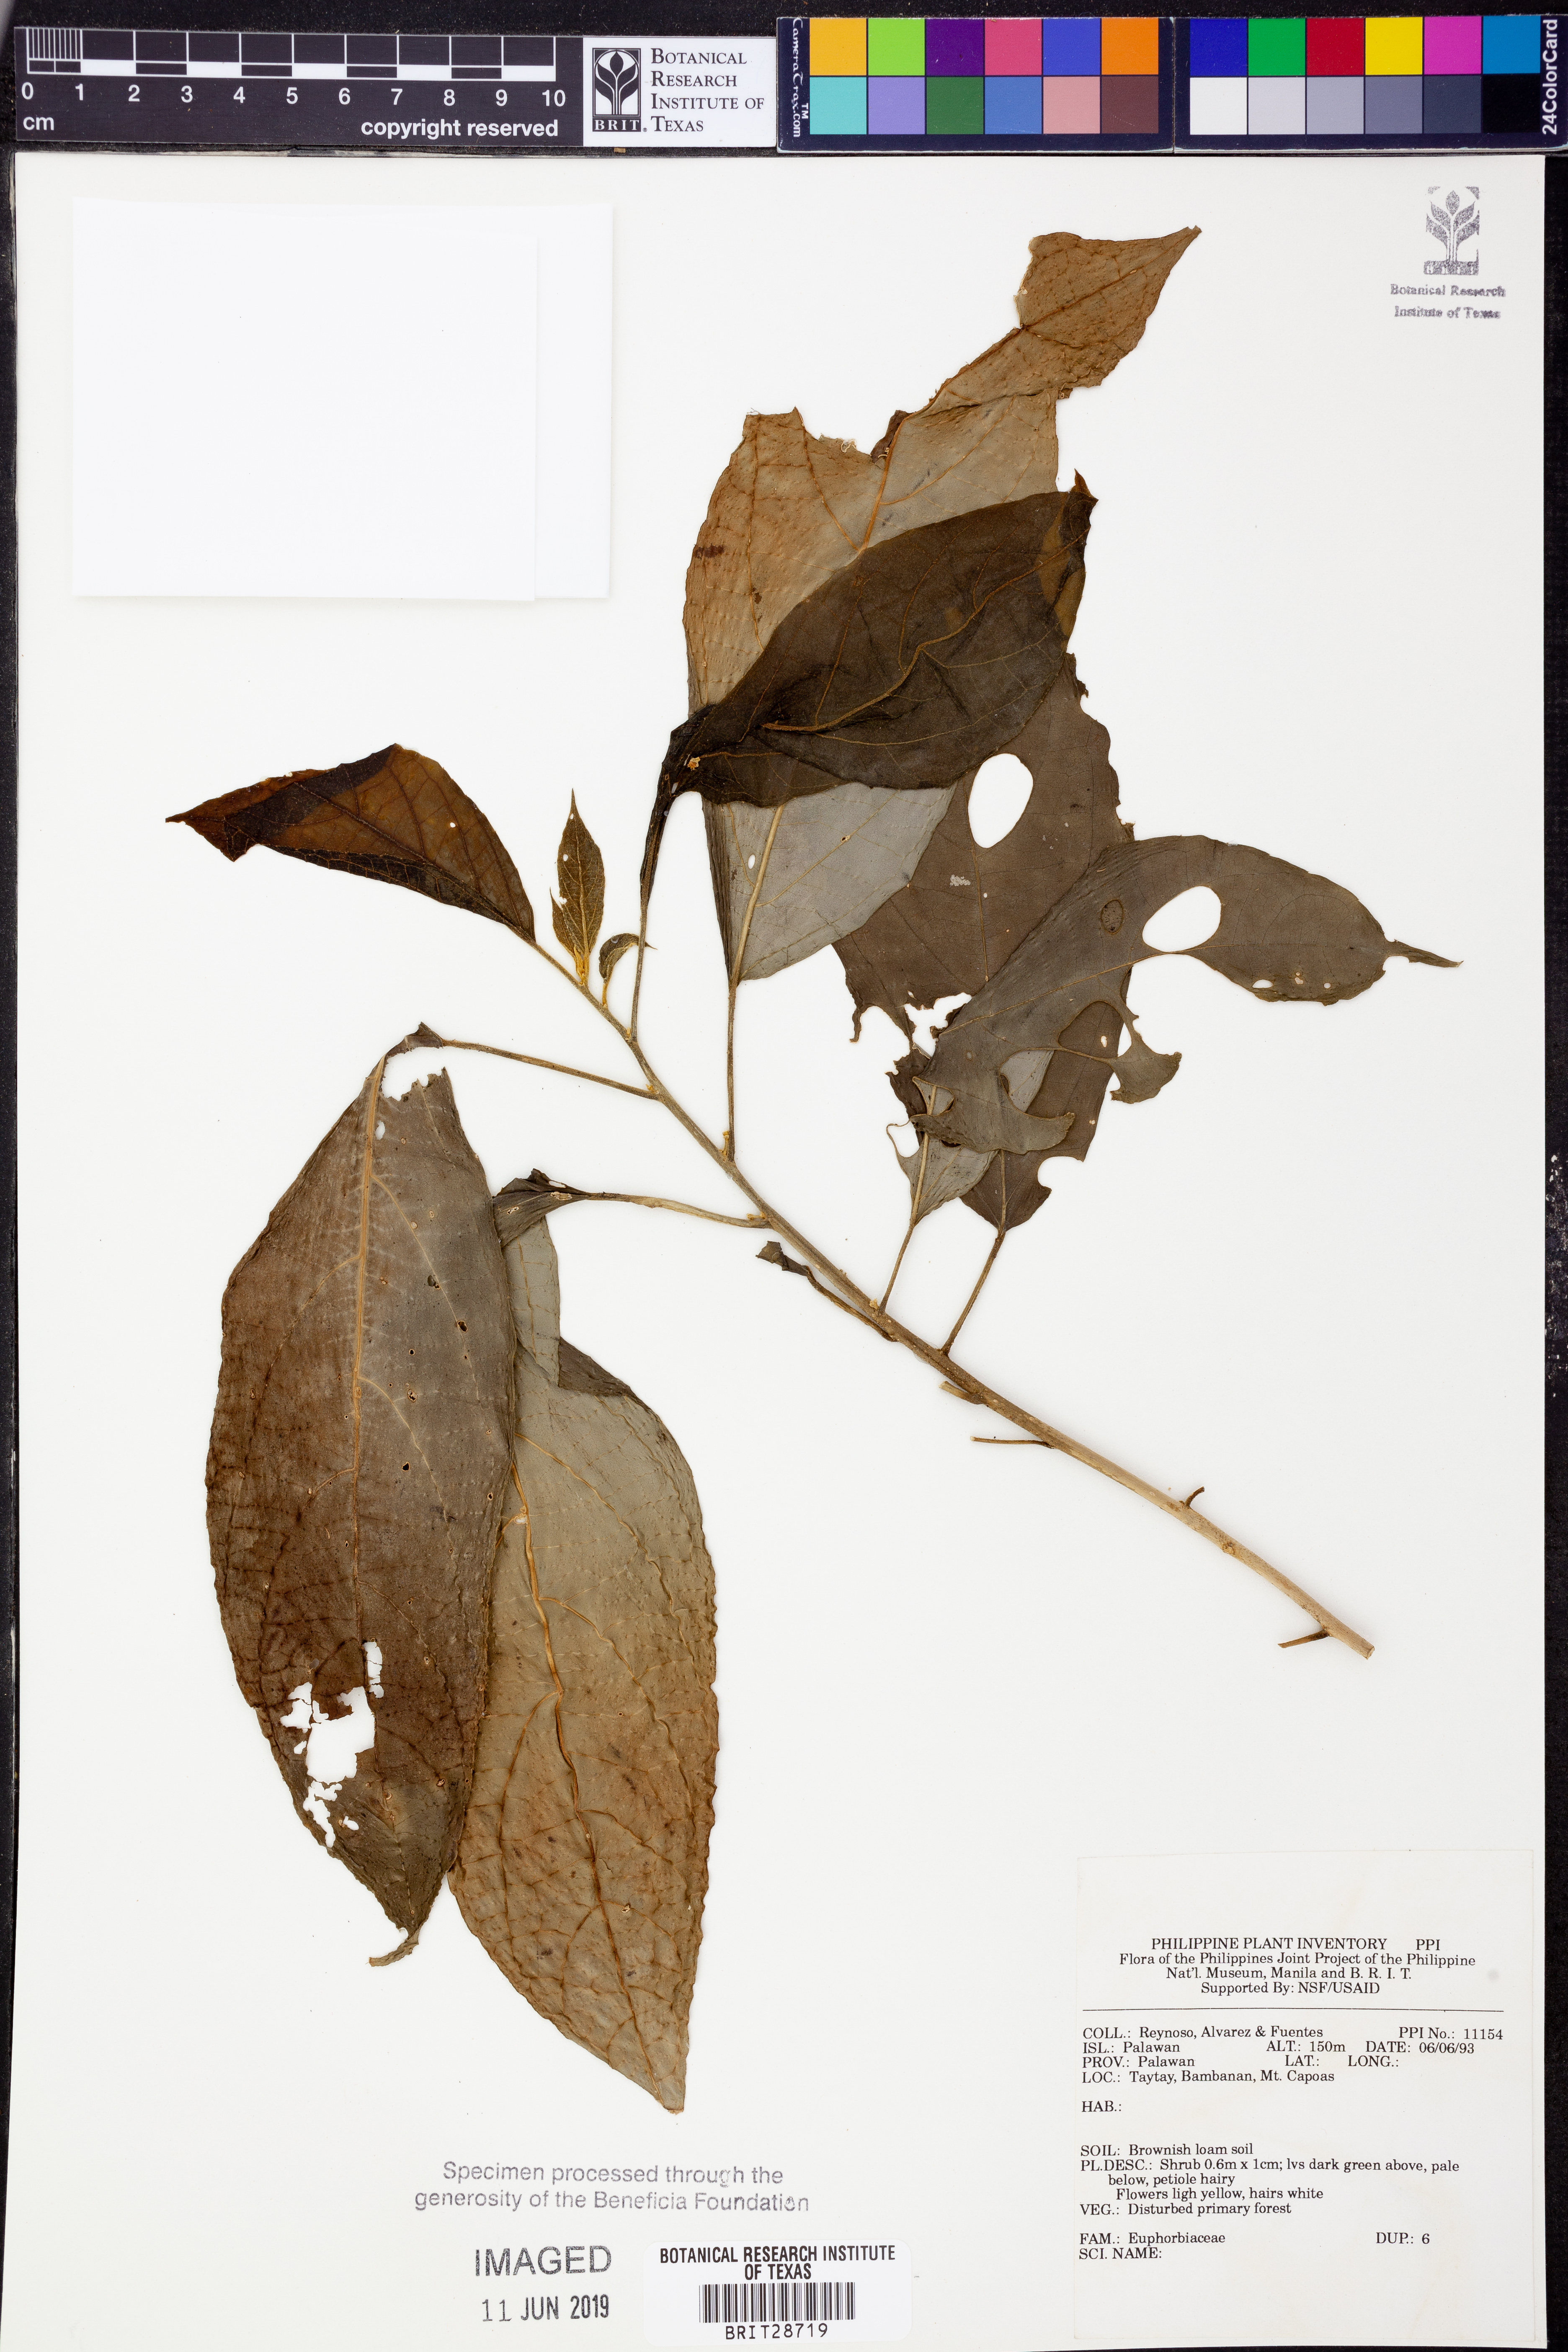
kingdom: Plantae
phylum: Tracheophyta
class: Magnoliopsida
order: Malpighiales
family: Euphorbiaceae
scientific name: Euphorbiaceae
